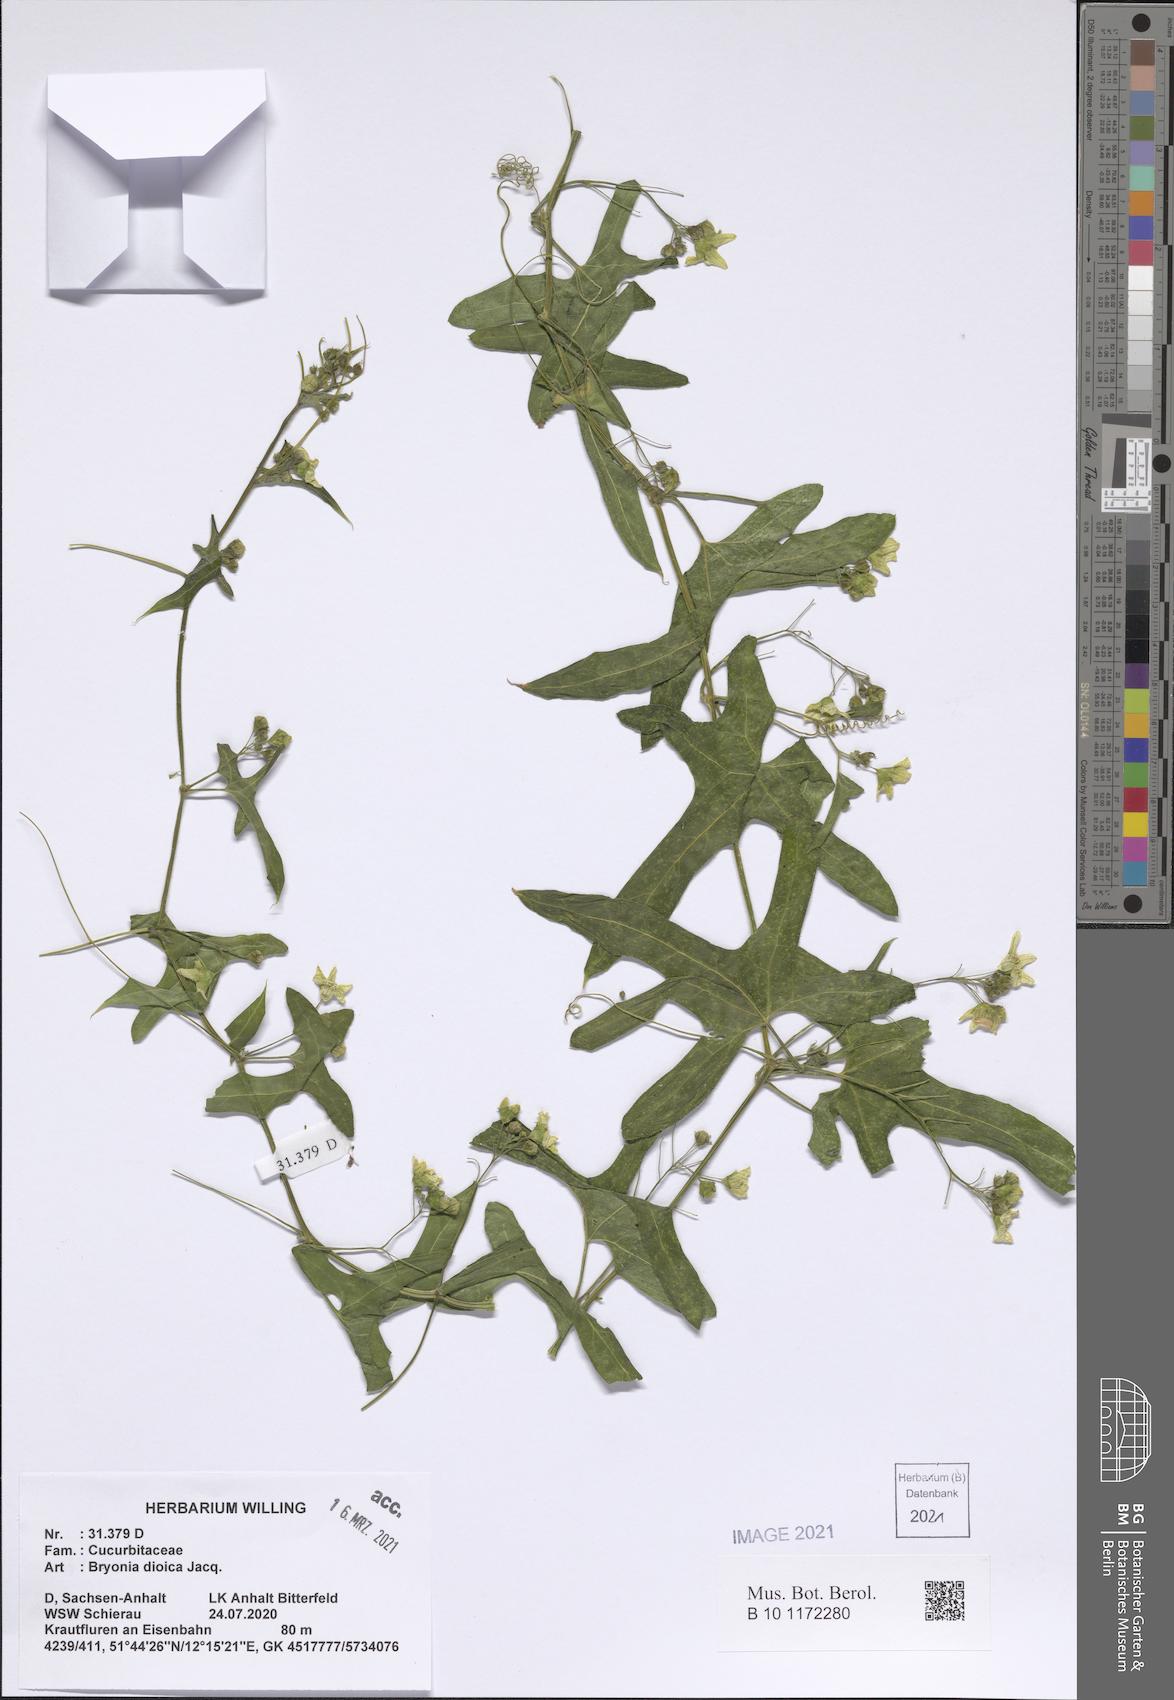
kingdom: Plantae
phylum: Tracheophyta
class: Magnoliopsida
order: Cucurbitales
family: Cucurbitaceae
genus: Bryonia
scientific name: Bryonia dioica
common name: White bryony
